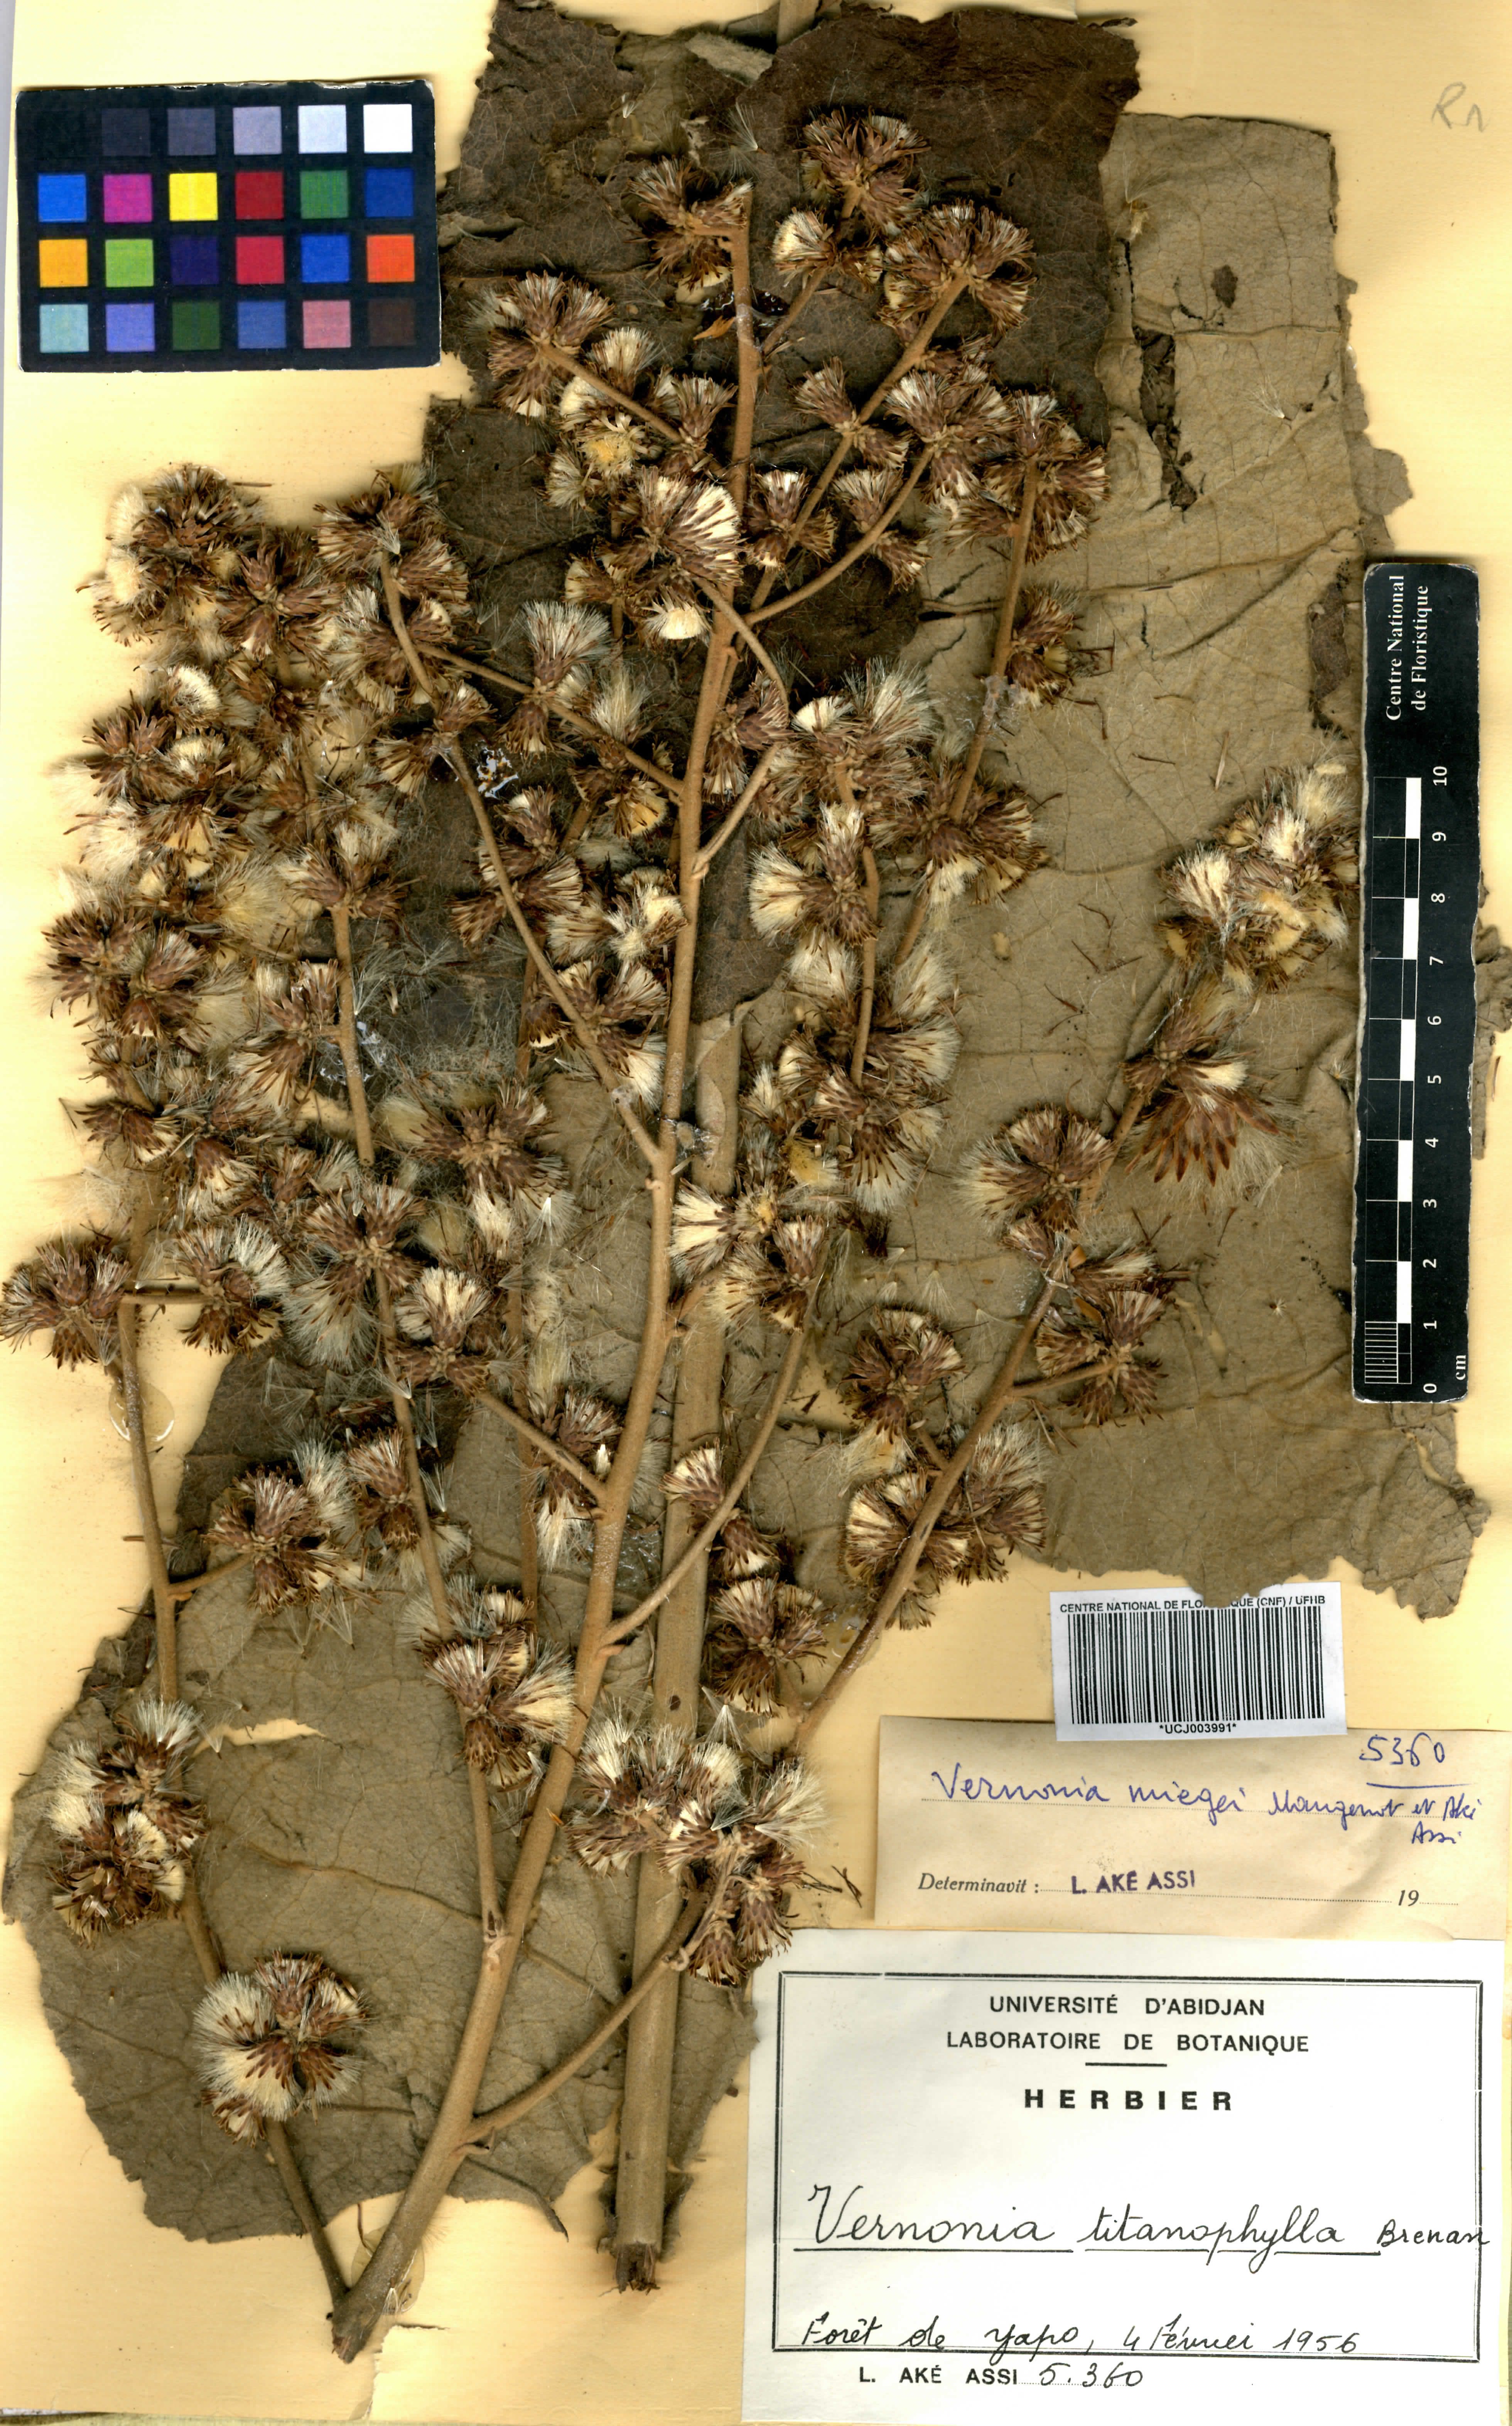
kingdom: Plantae
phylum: Tracheophyta
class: Magnoliopsida
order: Asterales
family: Asteraceae
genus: Brenandendron
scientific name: Brenandendron titanophyllum
